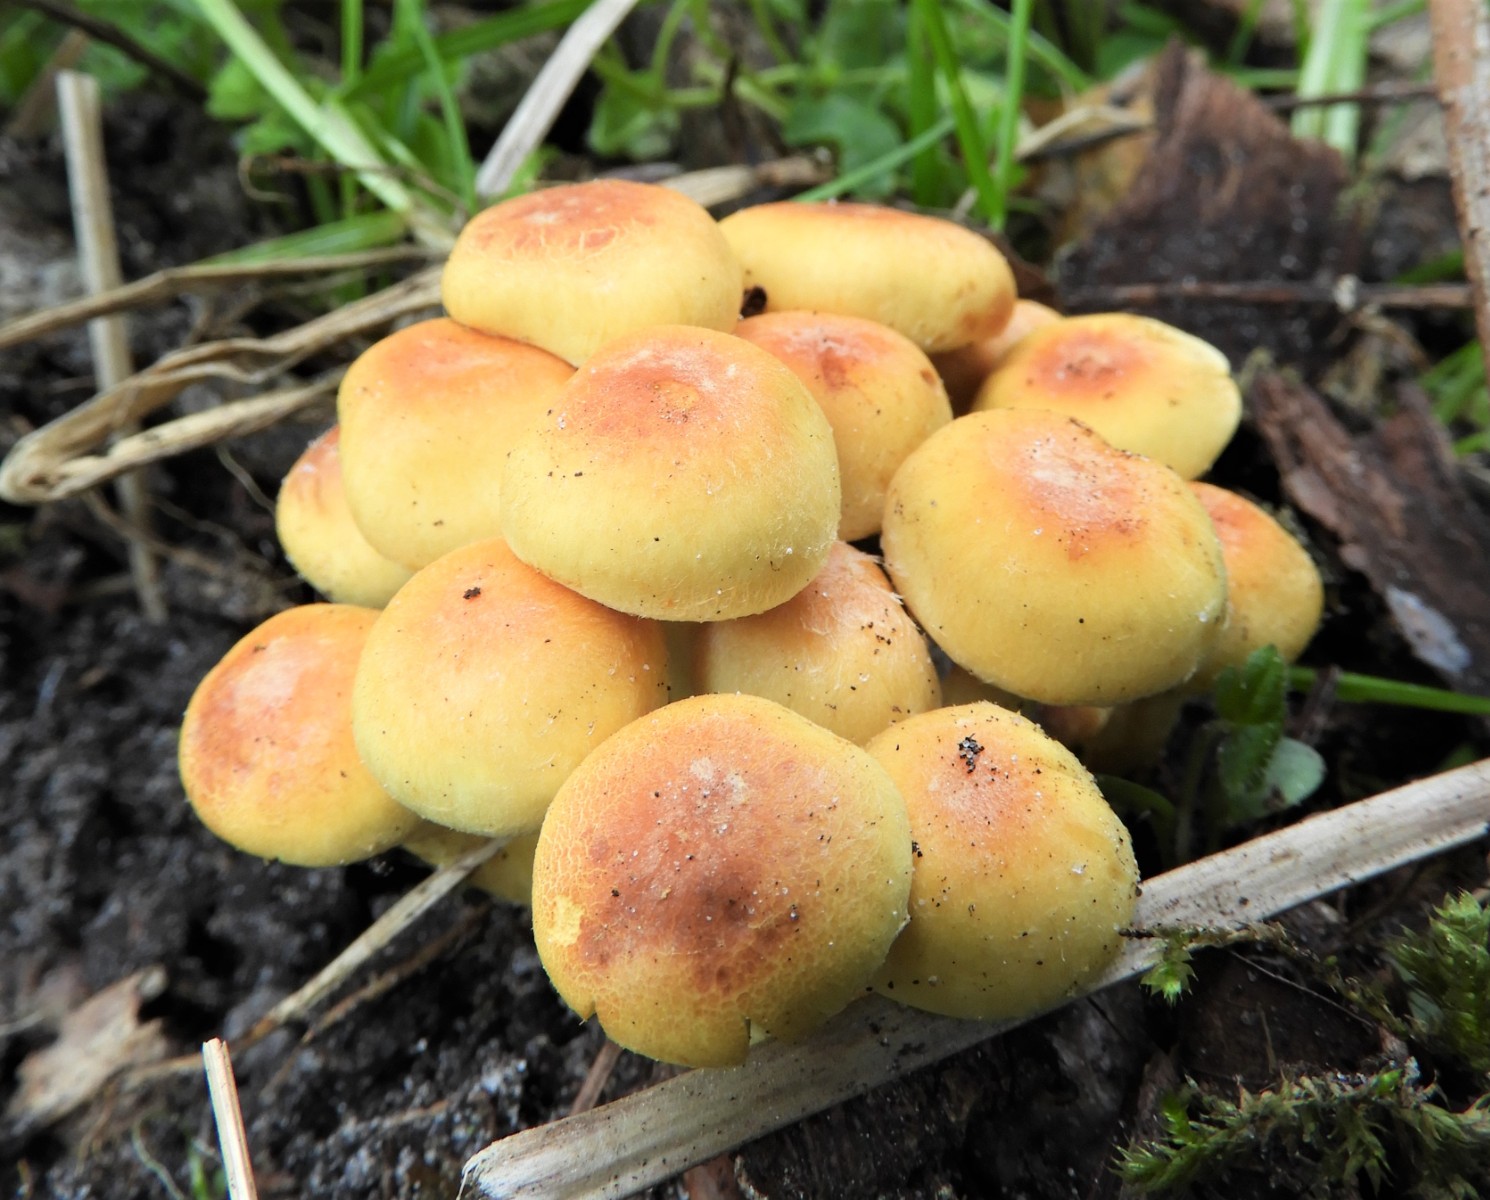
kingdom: Fungi
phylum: Basidiomycota
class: Agaricomycetes
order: Agaricales
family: Strophariaceae
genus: Hypholoma
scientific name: Hypholoma fasciculare
